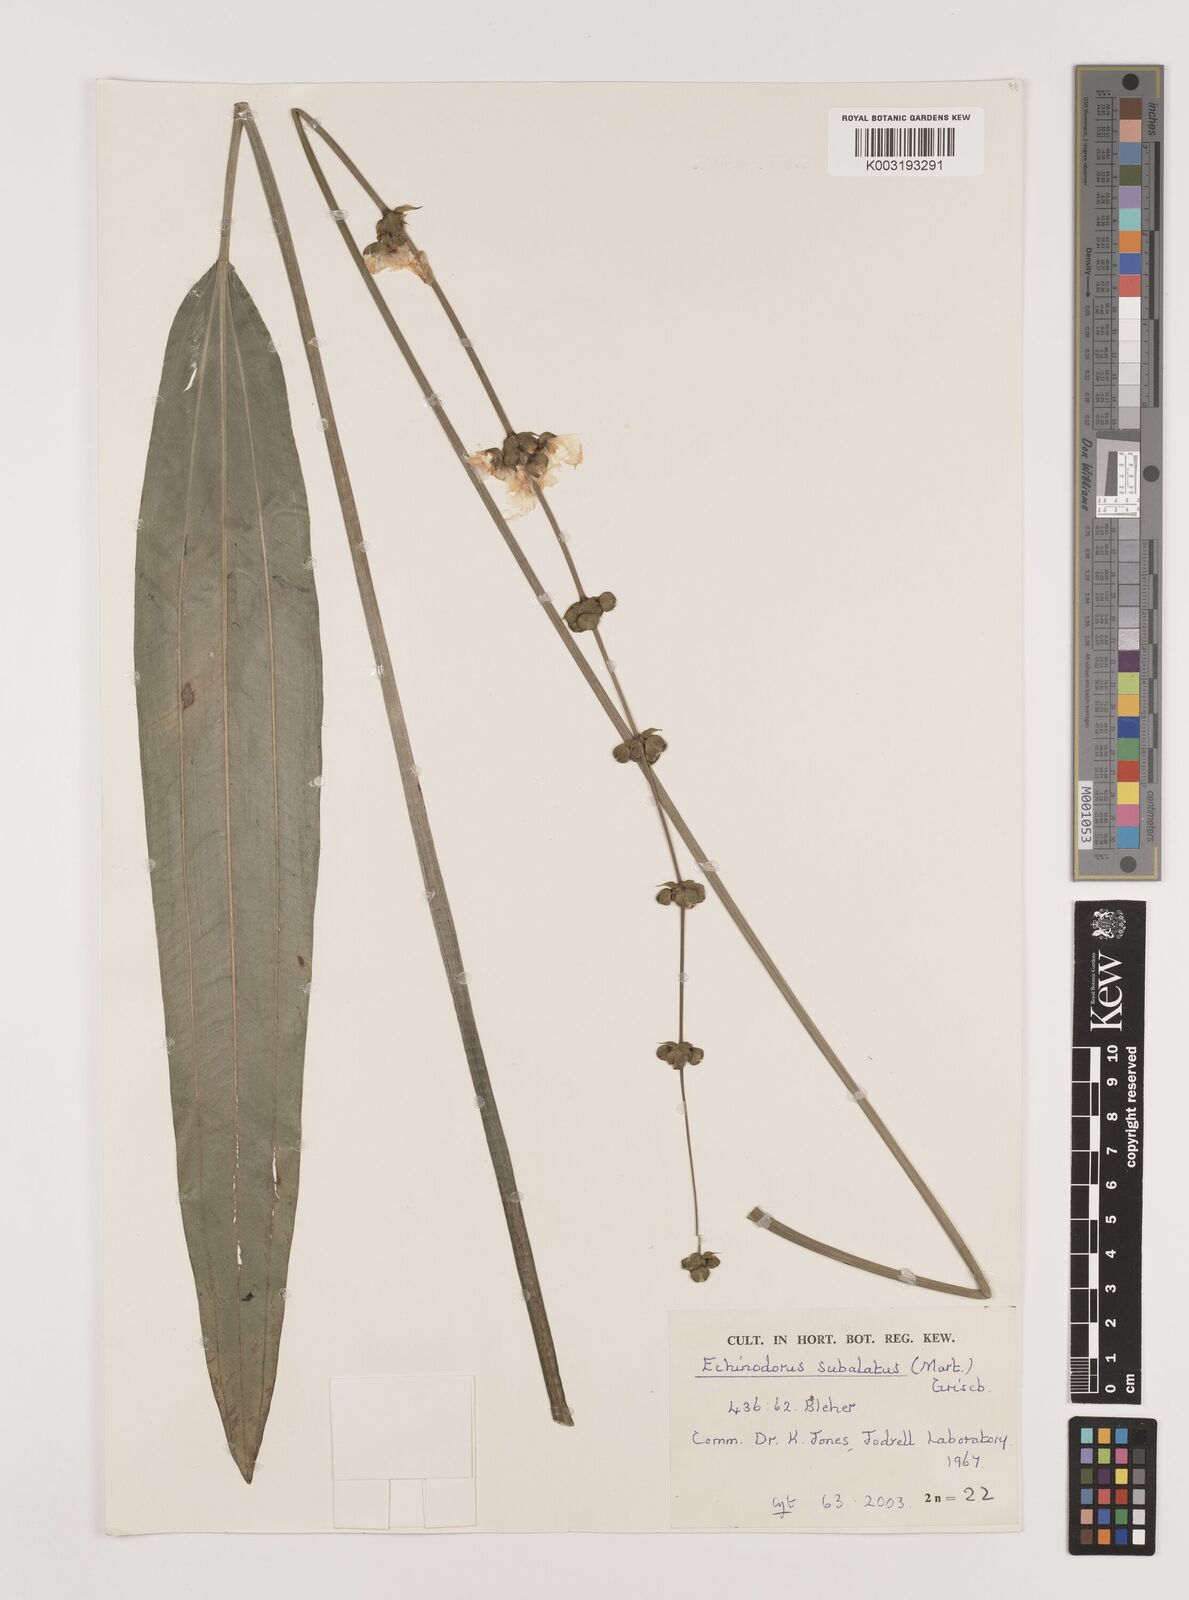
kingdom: Plantae
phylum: Tracheophyta
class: Liliopsida
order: Alismatales
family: Alismataceae
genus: Aquarius
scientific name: Aquarius subulatus
